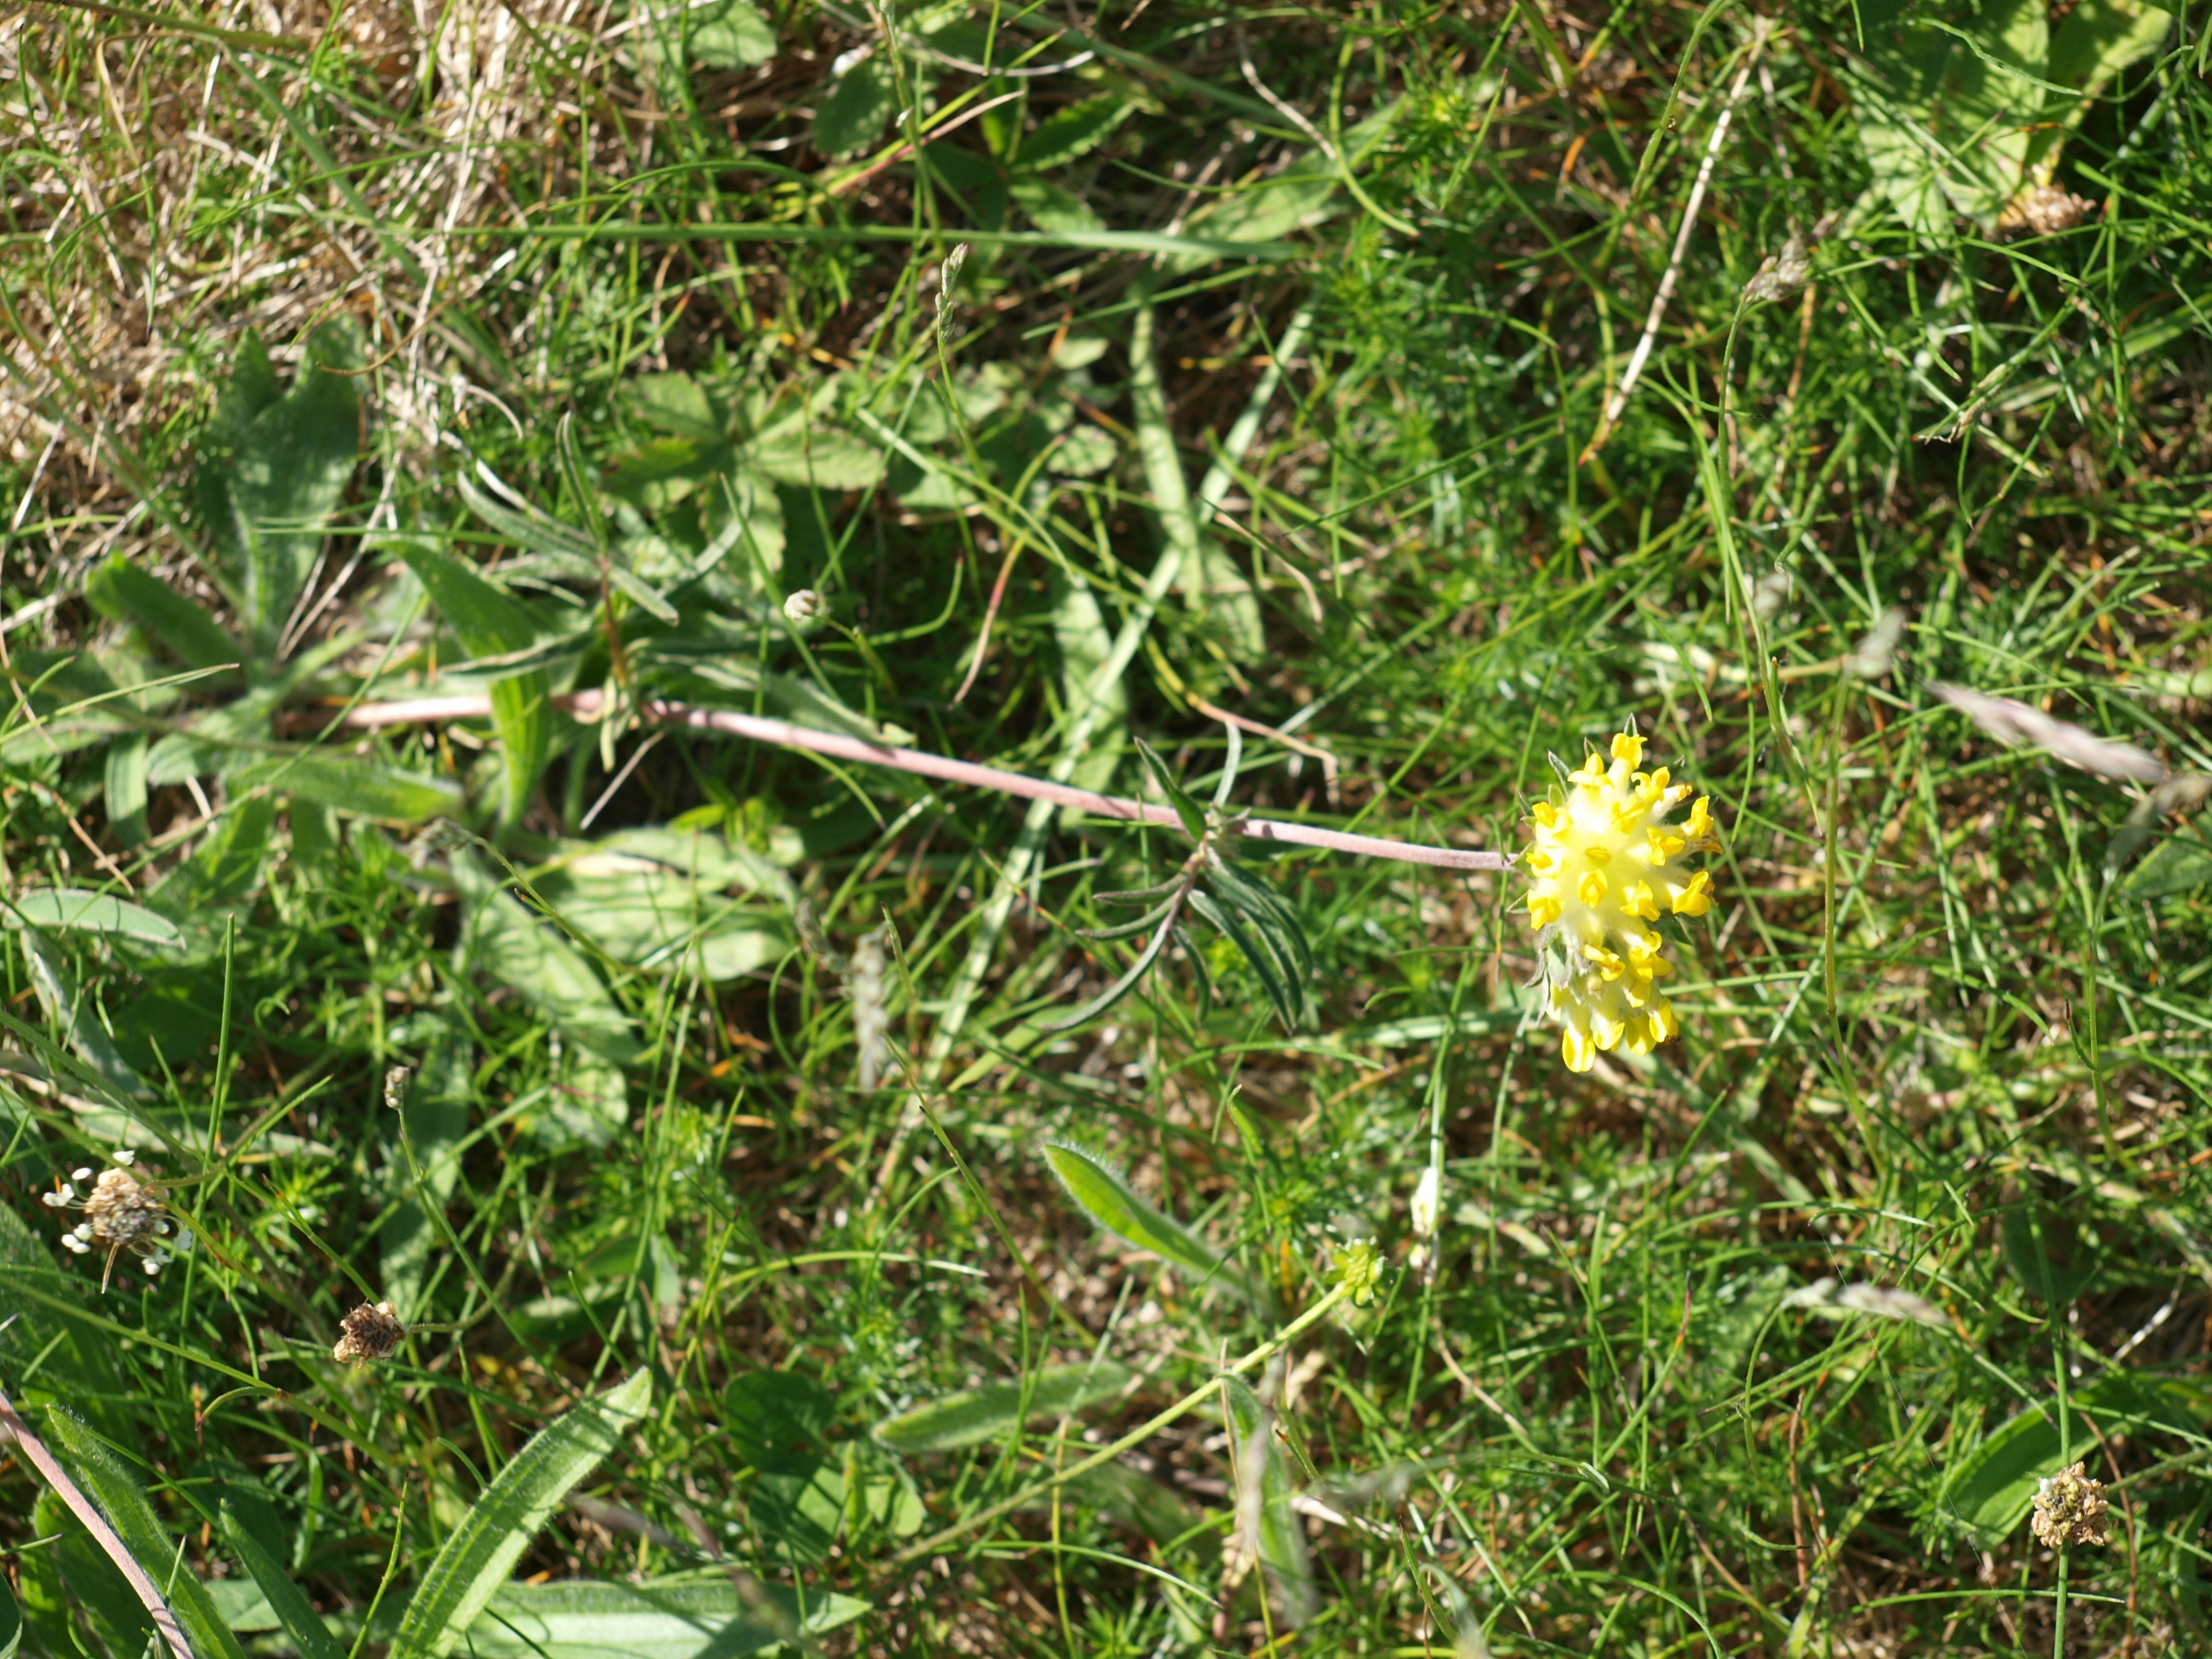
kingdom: Plantae
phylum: Tracheophyta
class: Magnoliopsida
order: Fabales
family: Fabaceae
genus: Anthyllis
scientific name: Anthyllis vulneraria
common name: Rundbælg
